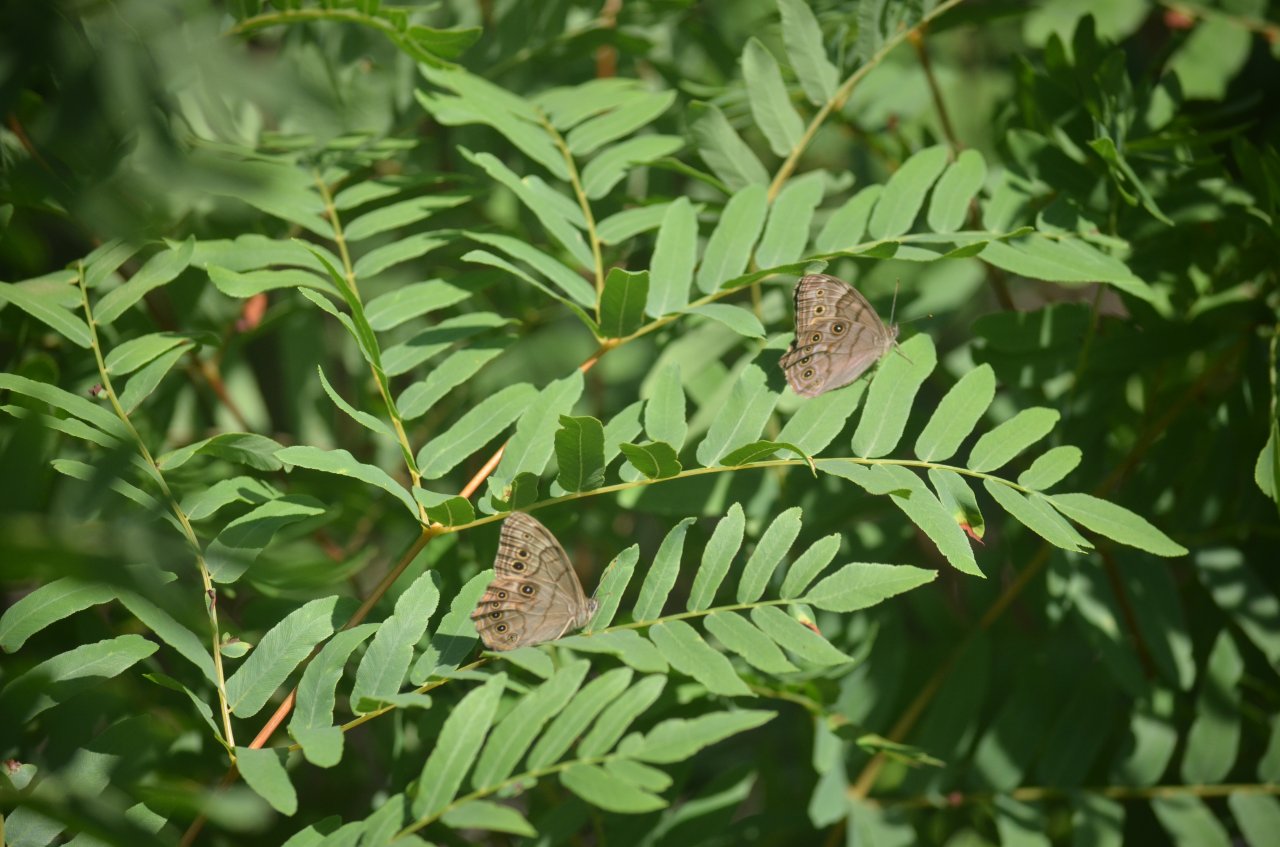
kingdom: Animalia
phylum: Arthropoda
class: Insecta
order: Lepidoptera
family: Nymphalidae
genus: Lethe
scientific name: Lethe anthedon
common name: Northern Pearly-Eye
